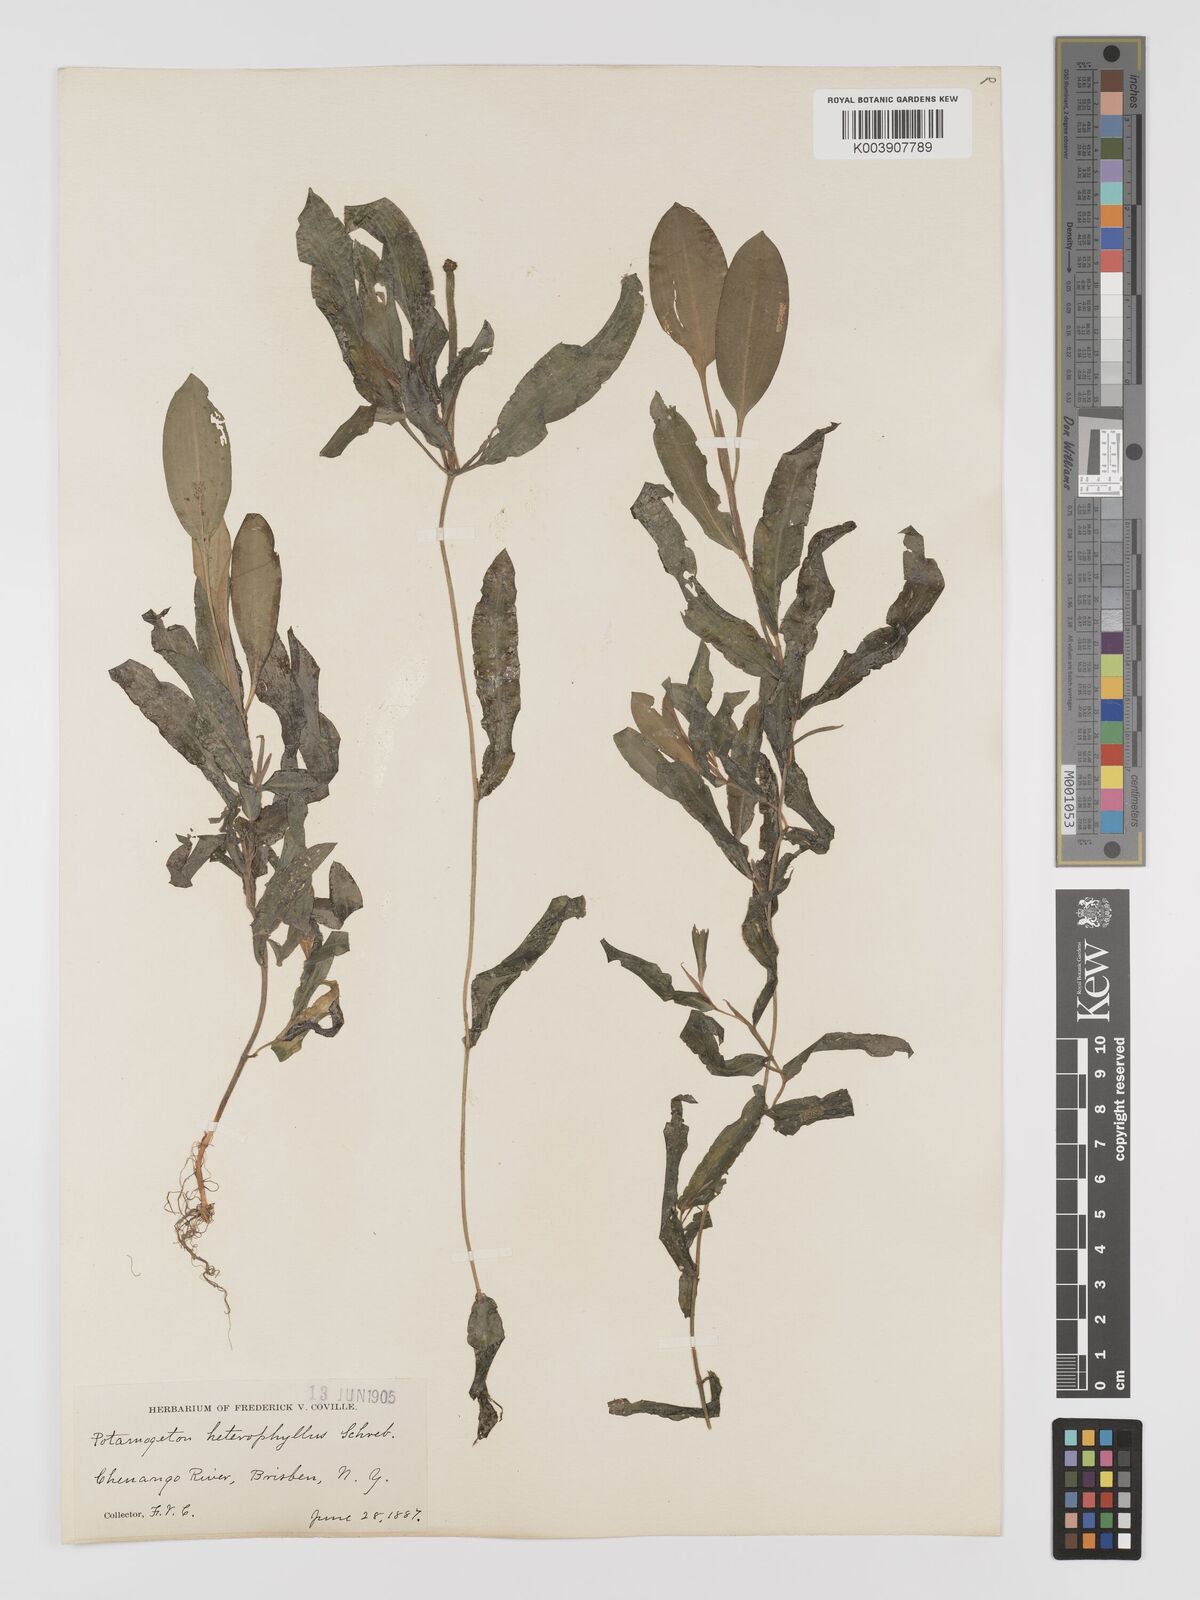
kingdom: Plantae
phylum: Tracheophyta
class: Liliopsida
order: Alismatales
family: Potamogetonaceae
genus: Potamogeton
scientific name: Potamogeton gramineus
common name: Various-leaved pondweed
